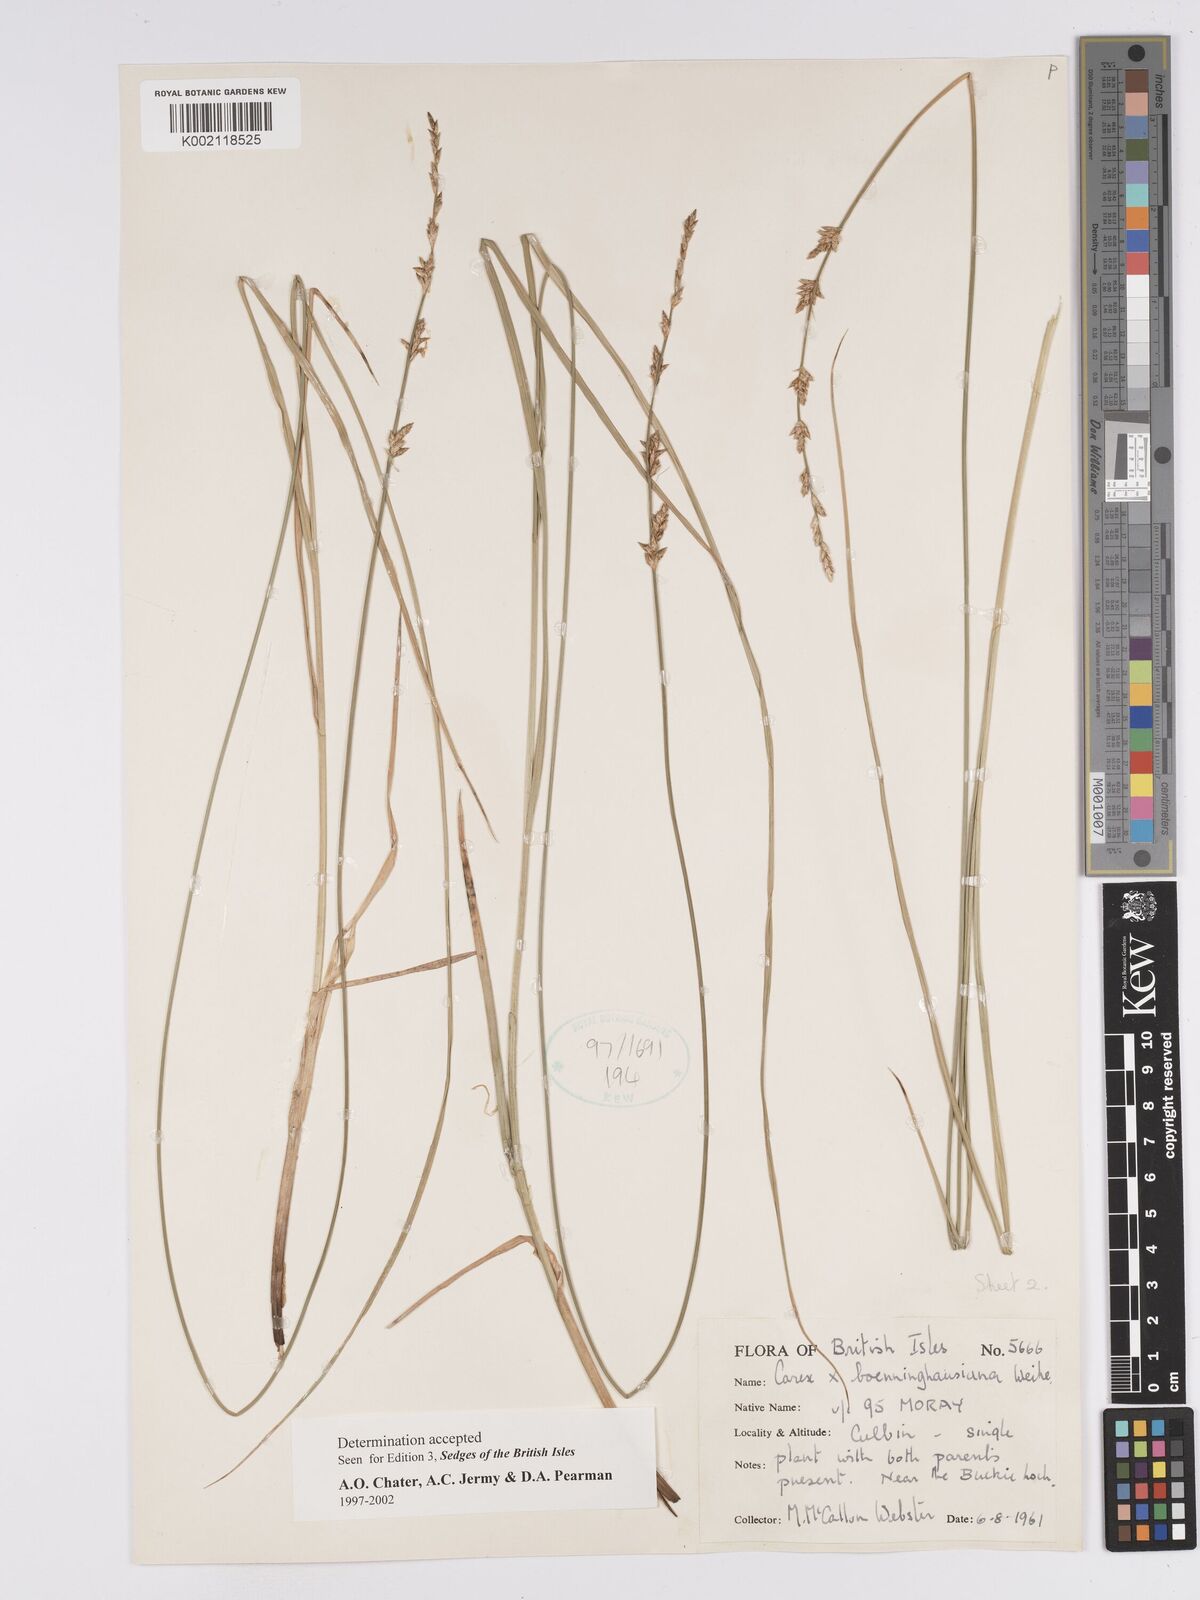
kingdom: Plantae
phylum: Tracheophyta
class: Liliopsida
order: Poales
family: Cyperaceae
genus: Carex
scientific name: Carex boenninghausiana
